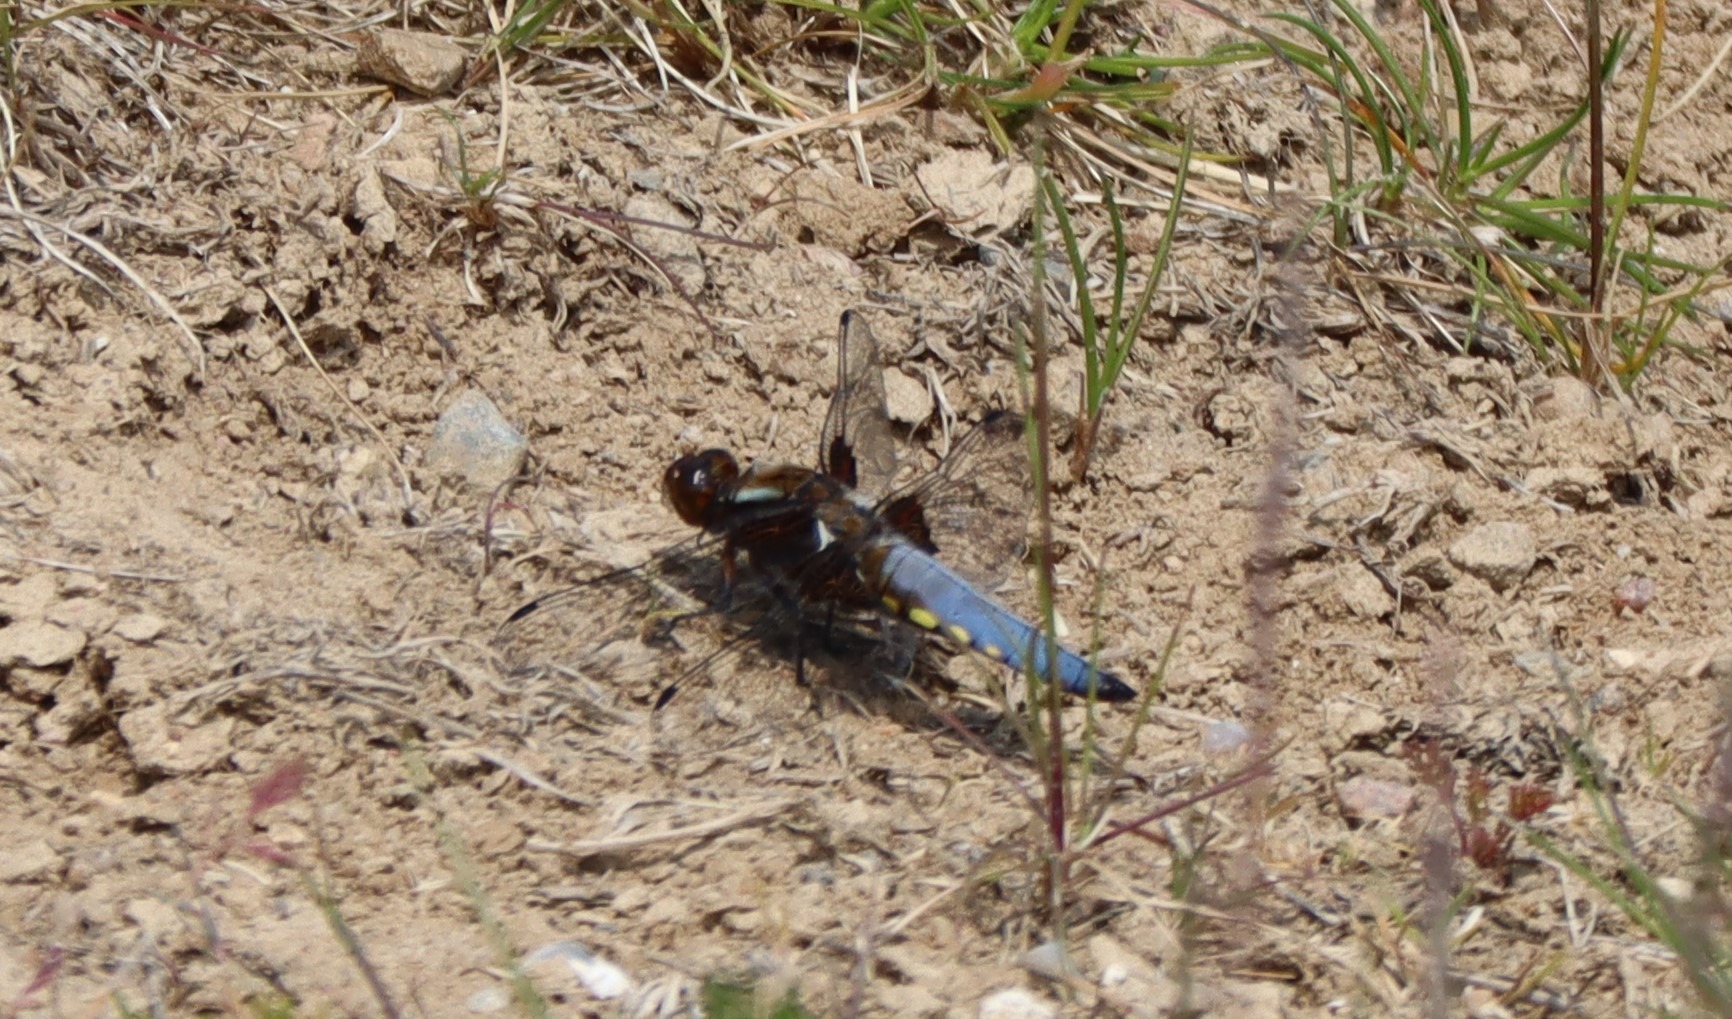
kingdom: Animalia
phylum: Arthropoda
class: Insecta
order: Odonata
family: Libellulidae
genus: Libellula
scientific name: Libellula depressa
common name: Blå libel
